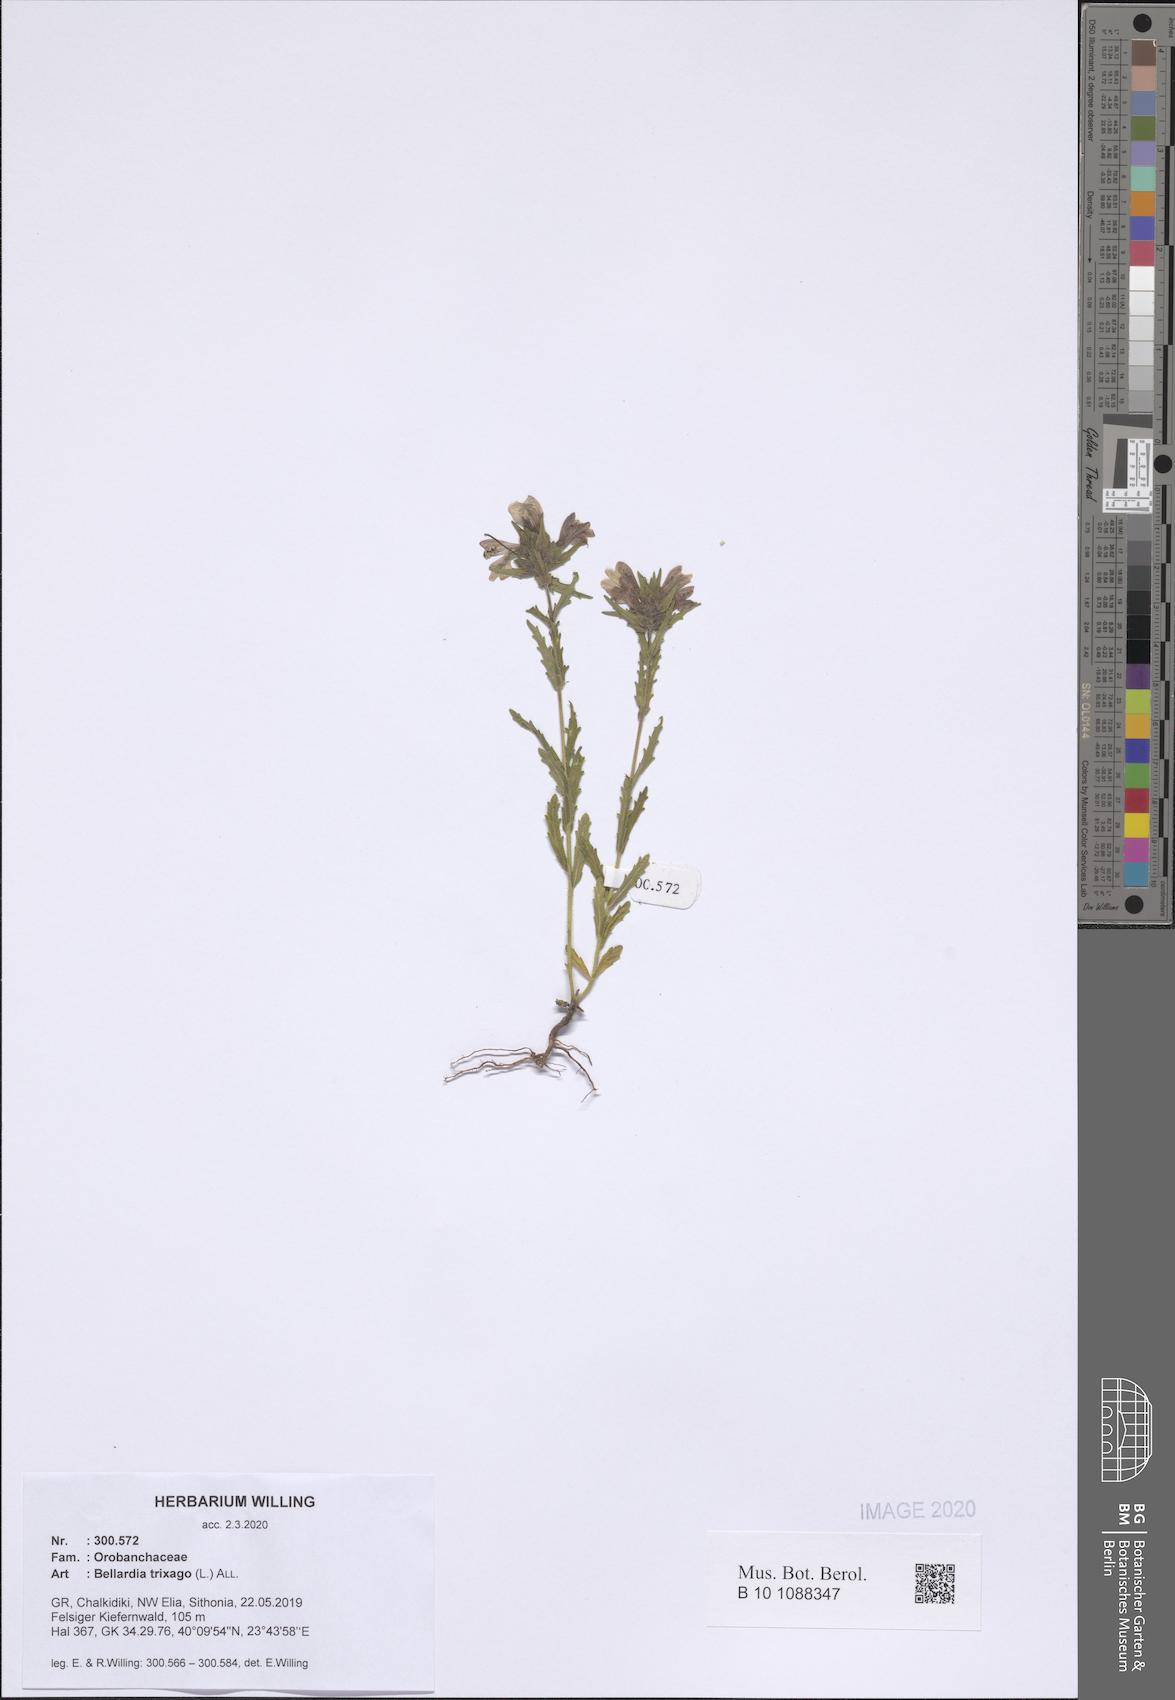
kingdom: Plantae
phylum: Tracheophyta
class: Magnoliopsida
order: Lamiales
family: Orobanchaceae
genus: Bellardia
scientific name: Bellardia trixago
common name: Mediterranean lineseed
